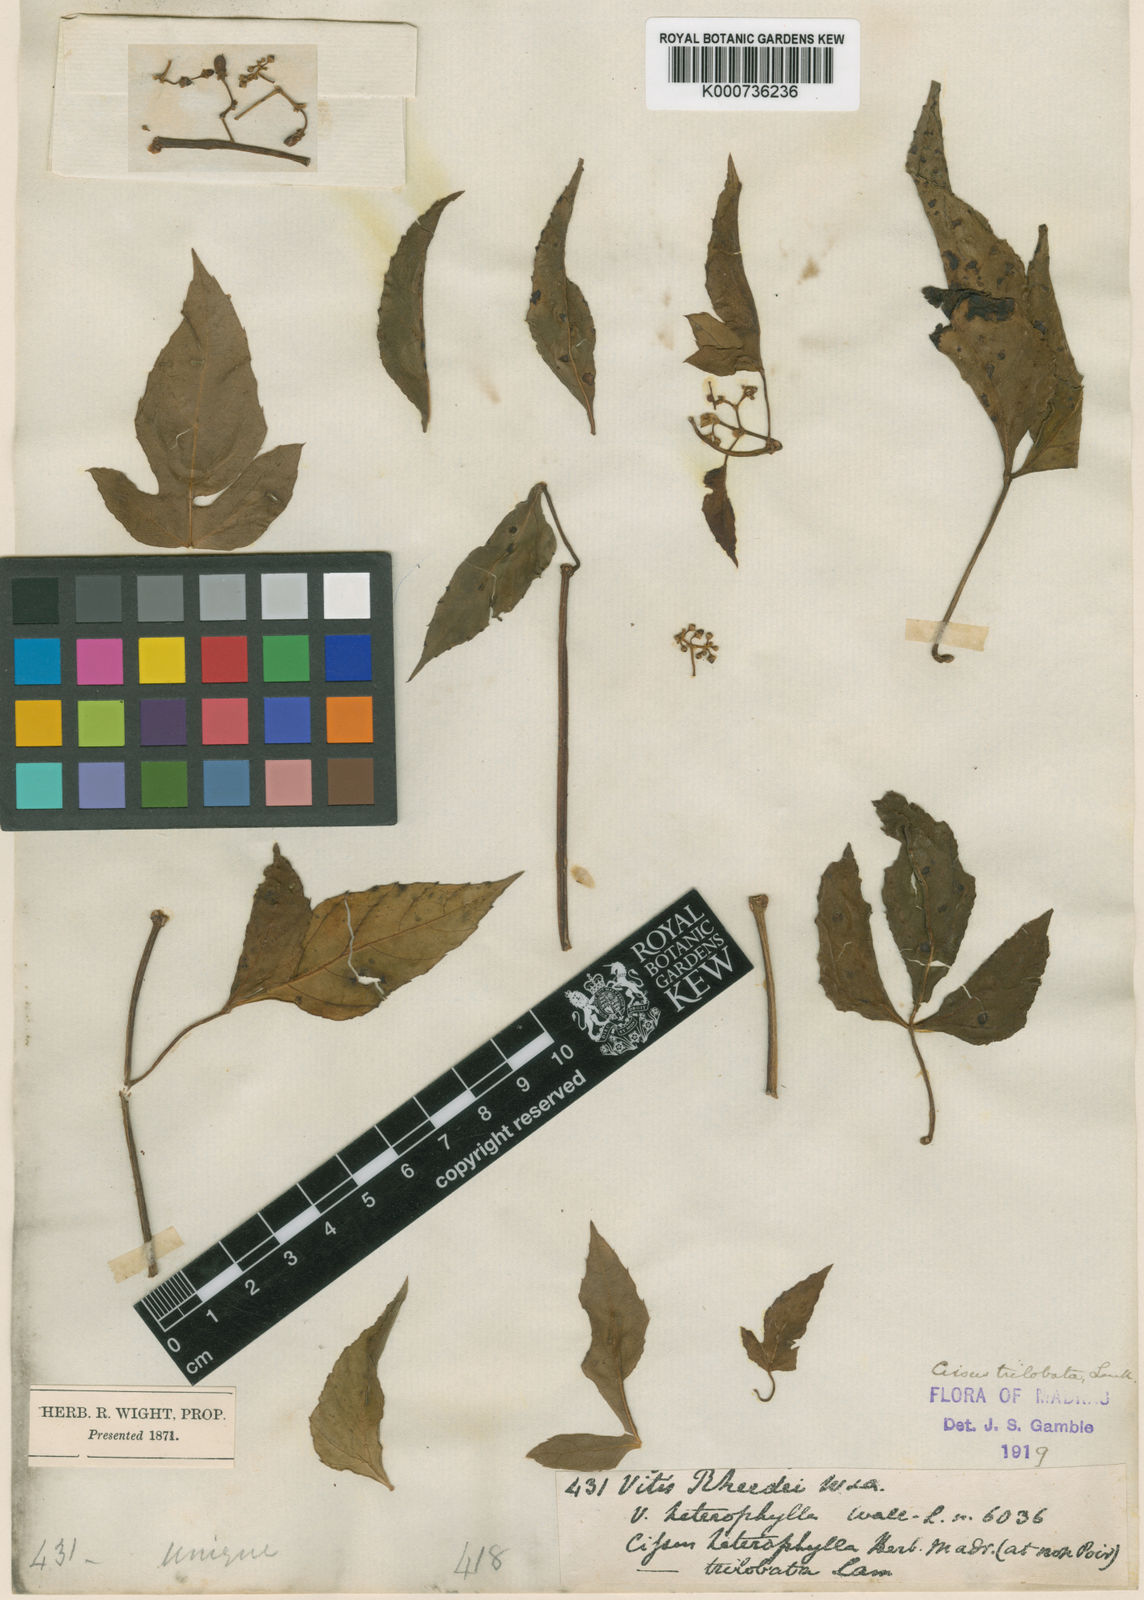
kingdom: Plantae
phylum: Tracheophyta
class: Magnoliopsida
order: Vitales
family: Vitaceae
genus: Cissus
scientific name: Cissus trilobata
